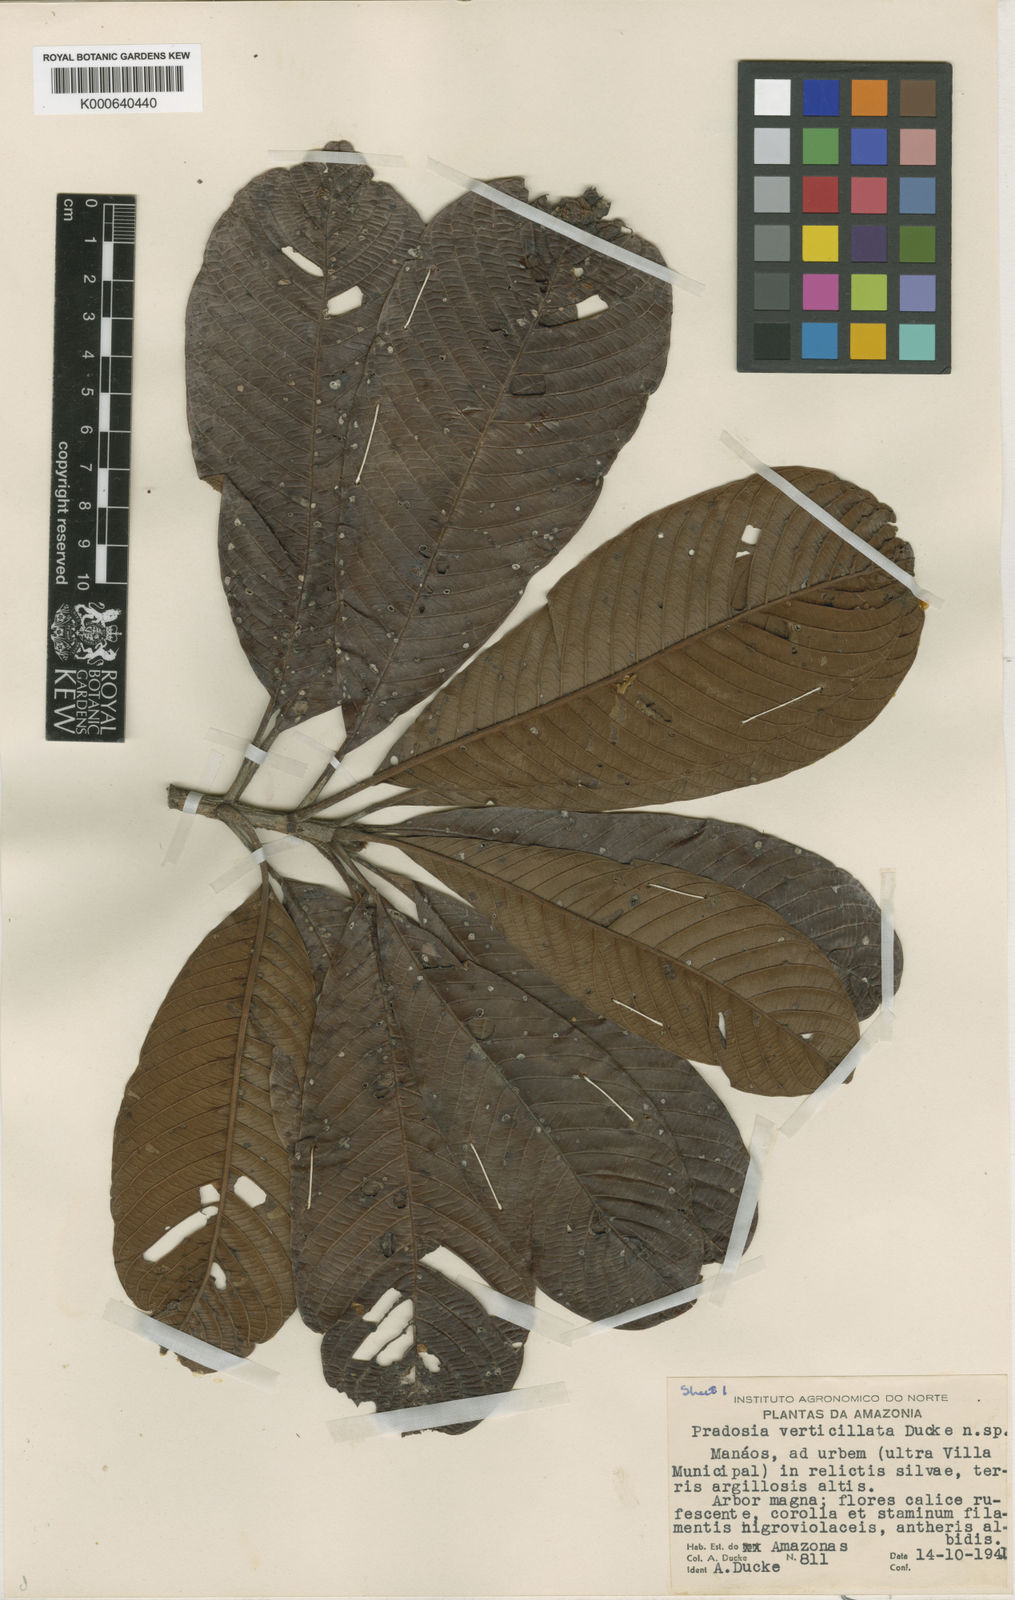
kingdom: Plantae
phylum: Tracheophyta
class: Magnoliopsida
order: Ericales
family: Sapotaceae
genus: Pradosia
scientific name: Pradosia verticillata
